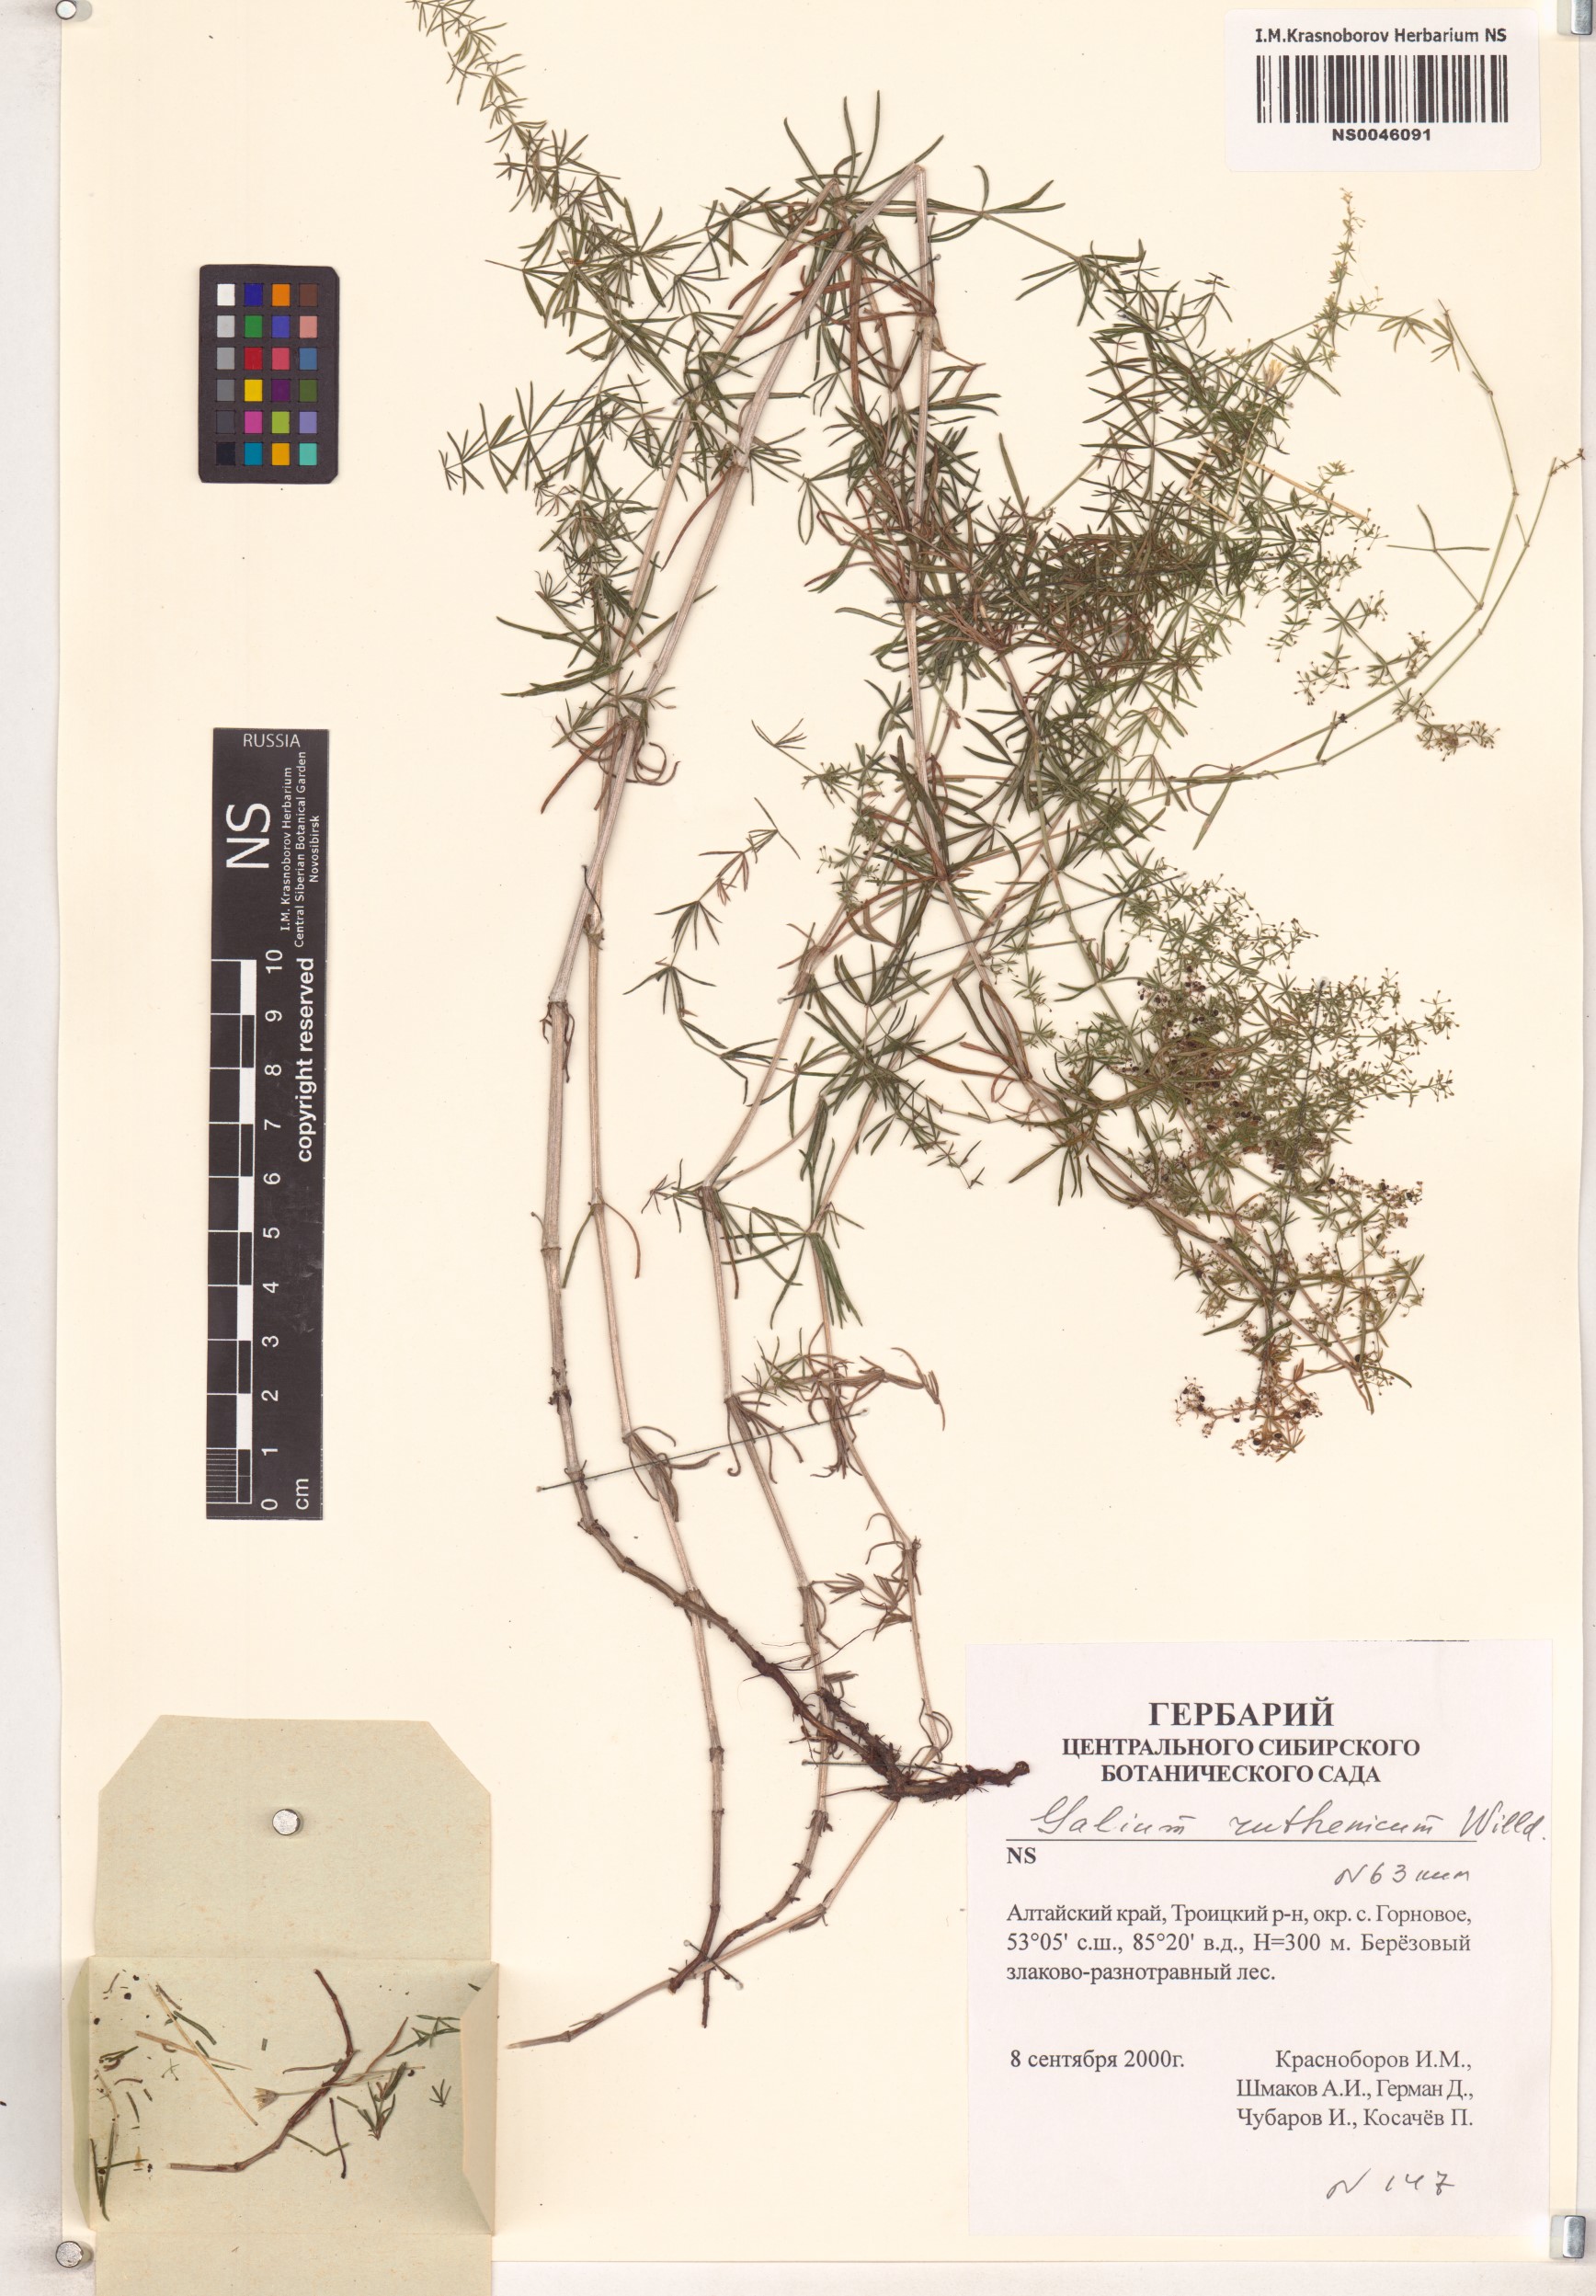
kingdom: Plantae
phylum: Tracheophyta
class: Magnoliopsida
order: Gentianales
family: Rubiaceae
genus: Galium
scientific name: Galium verum
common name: Lady's bedstraw
